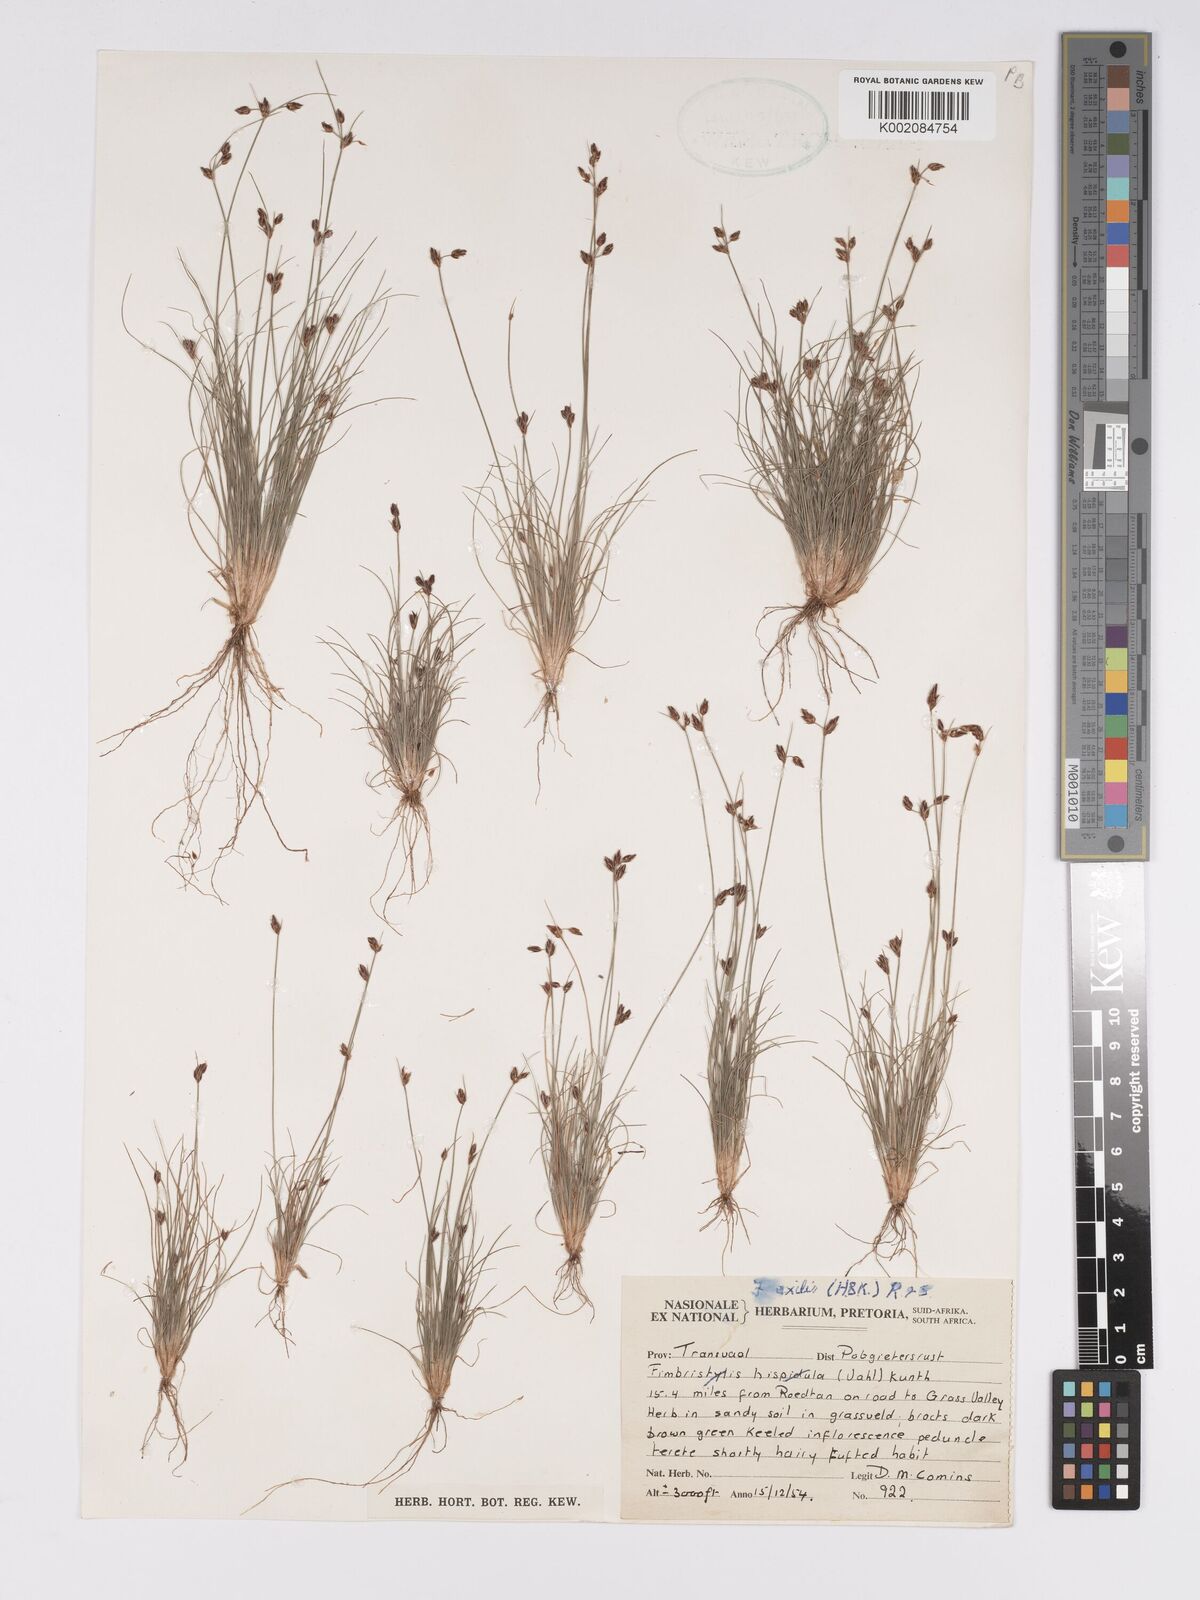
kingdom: Plantae
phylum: Tracheophyta
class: Liliopsida
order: Poales
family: Cyperaceae
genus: Bulbostylis
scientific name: Bulbostylis
